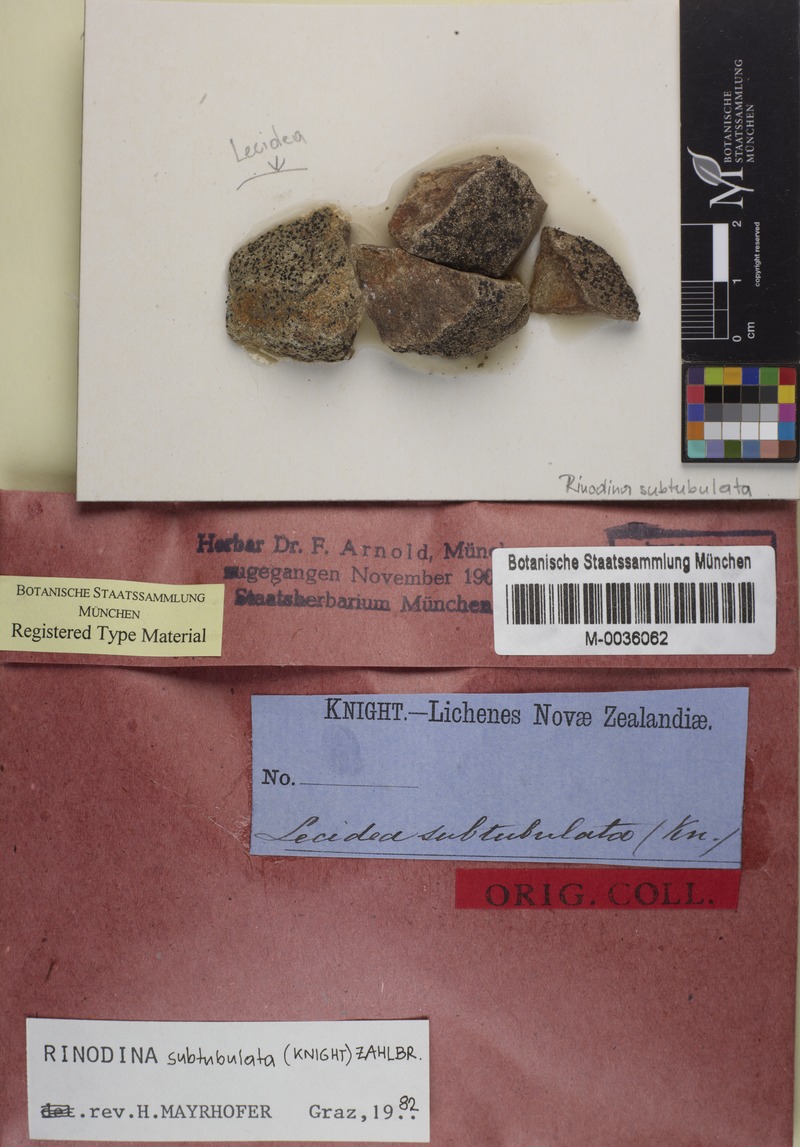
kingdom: Fungi
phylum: Ascomycota
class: Lecanoromycetes
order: Caliciales
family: Physciaceae
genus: Rinodina
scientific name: Rinodina
